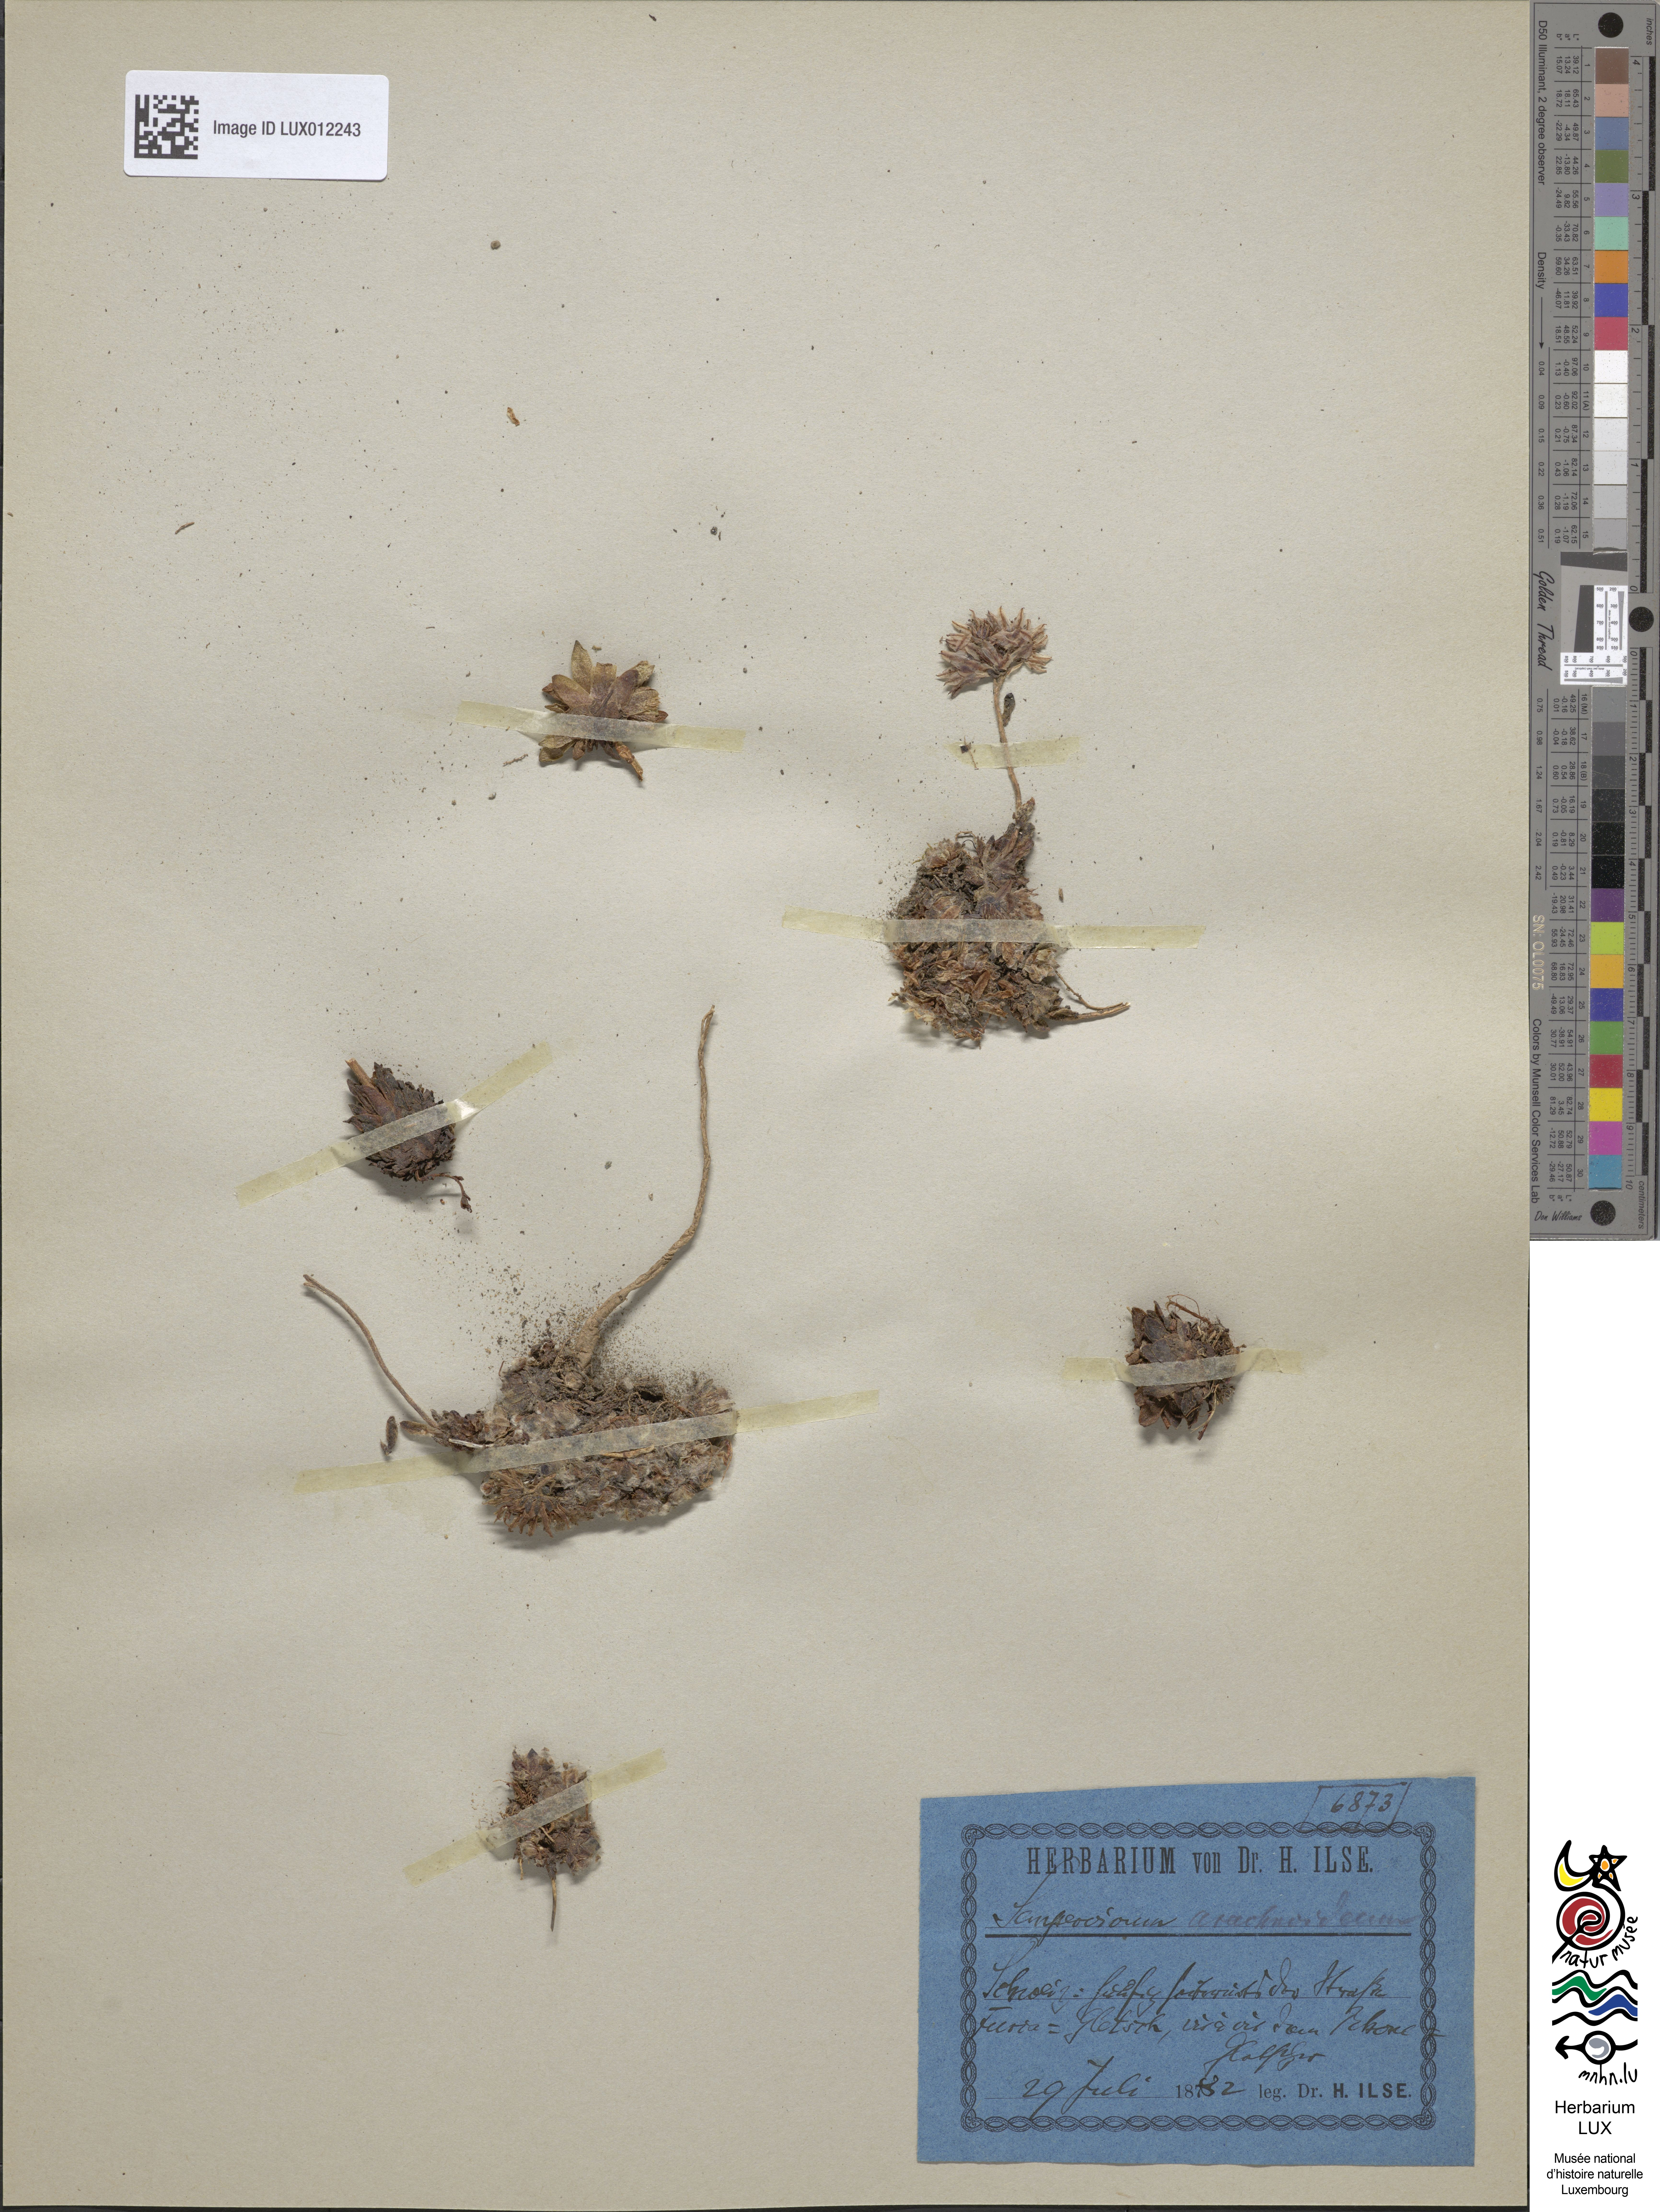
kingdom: Plantae
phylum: Tracheophyta
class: Magnoliopsida
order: Saxifragales
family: Crassulaceae
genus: Sempervivum
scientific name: Sempervivum arachnoideum
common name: Cobweb house-leek
